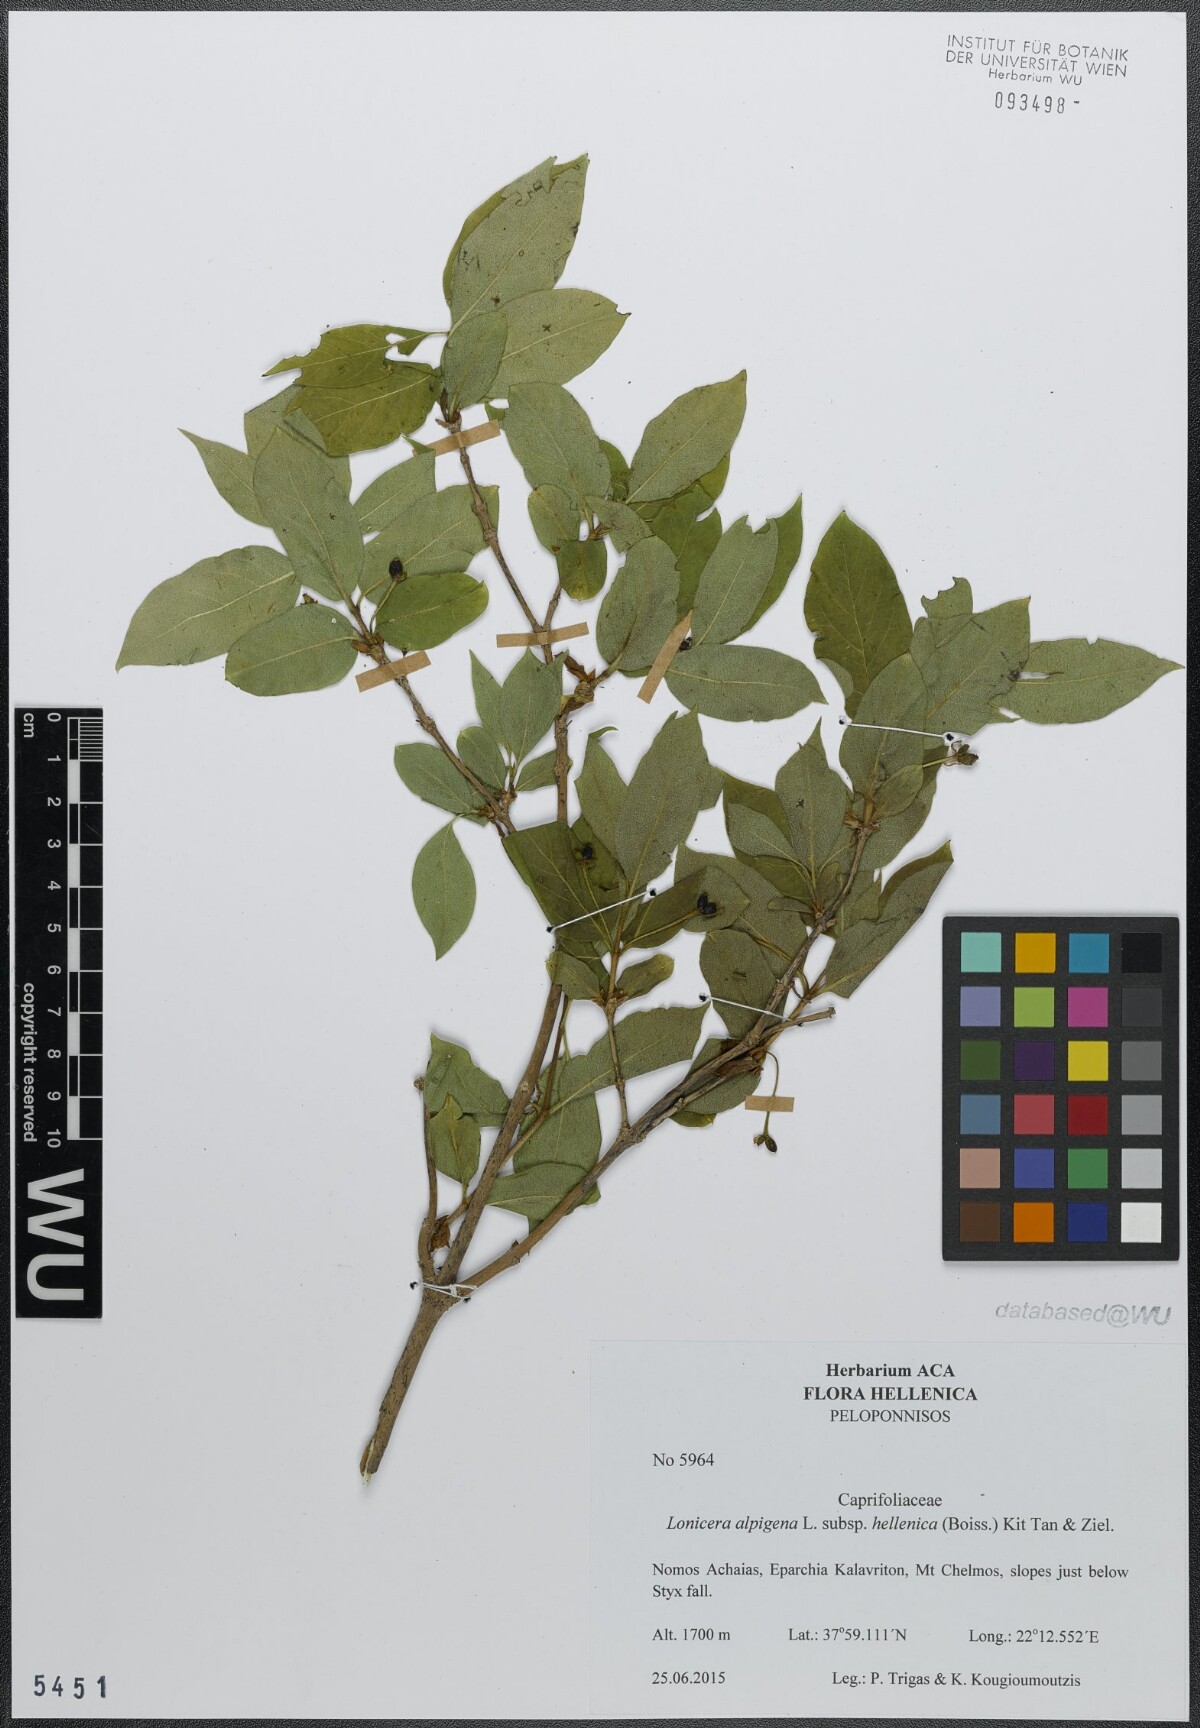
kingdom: Plantae
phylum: Tracheophyta
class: Magnoliopsida
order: Dipsacales
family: Caprifoliaceae
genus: Lonicera
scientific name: Lonicera alpigena
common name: Alpine honeysuckle
